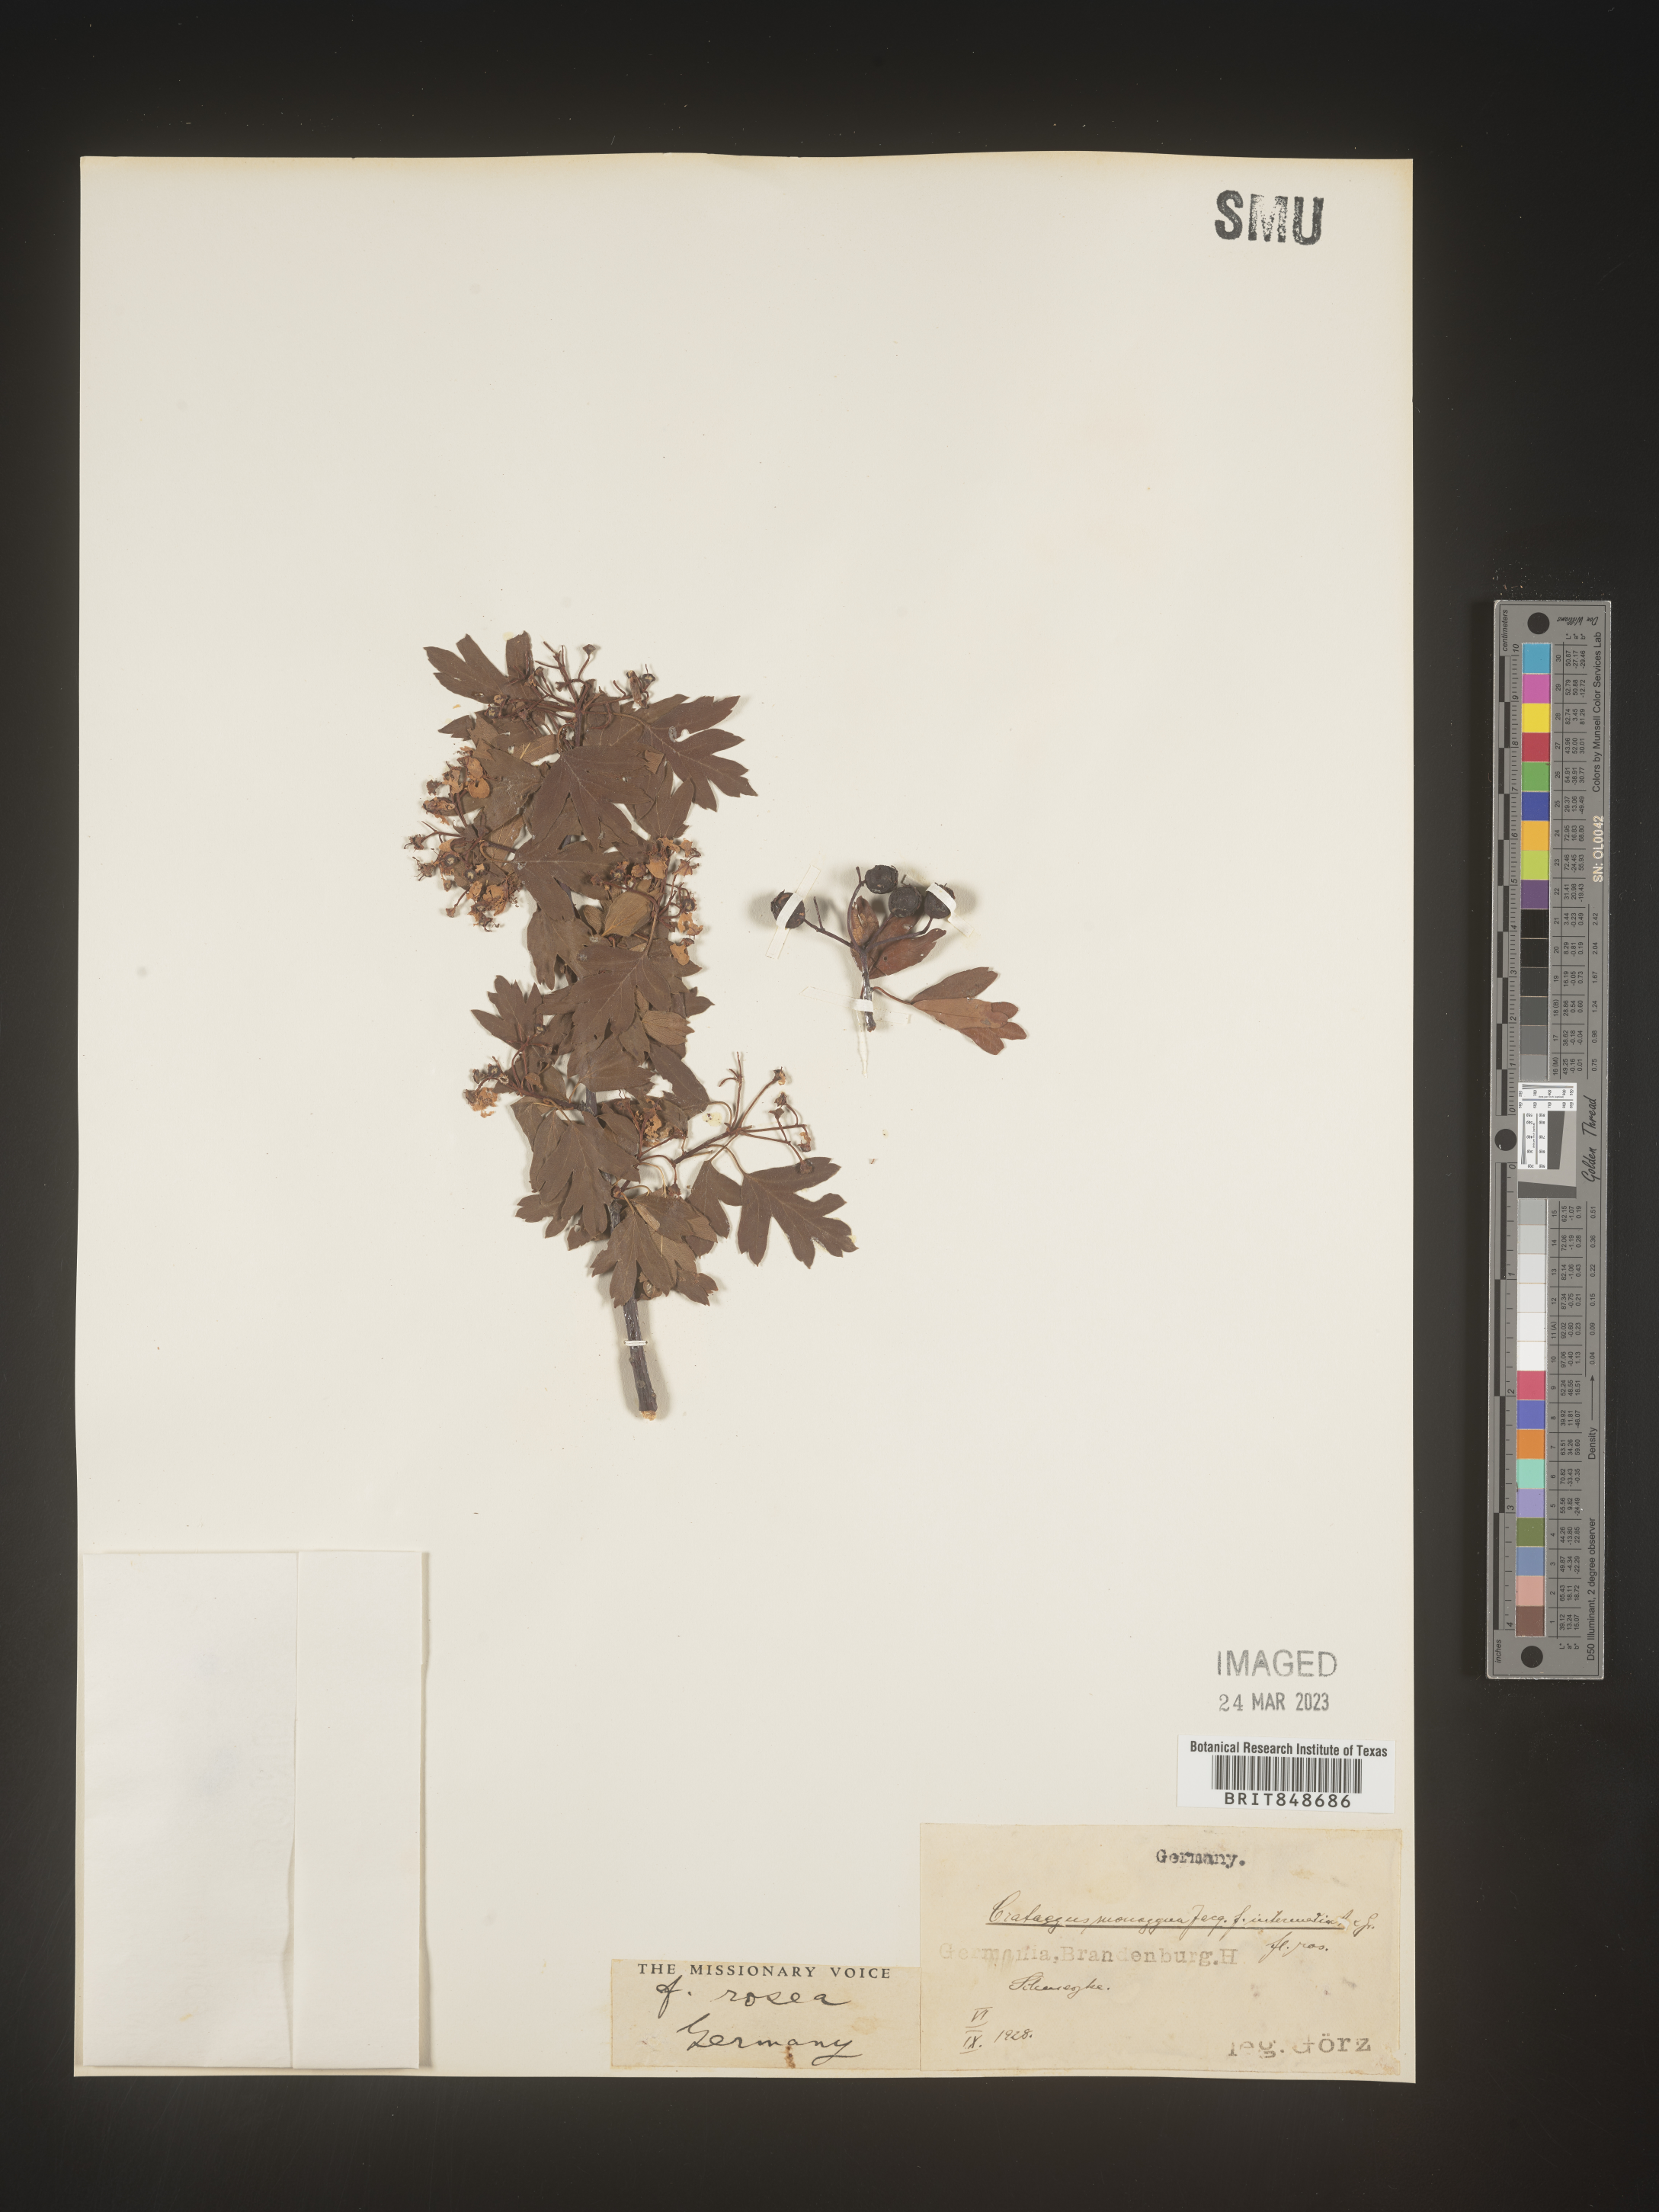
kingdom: Plantae
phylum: Tracheophyta
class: Magnoliopsida
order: Rosales
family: Rosaceae
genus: Crataegus
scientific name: Crataegus
